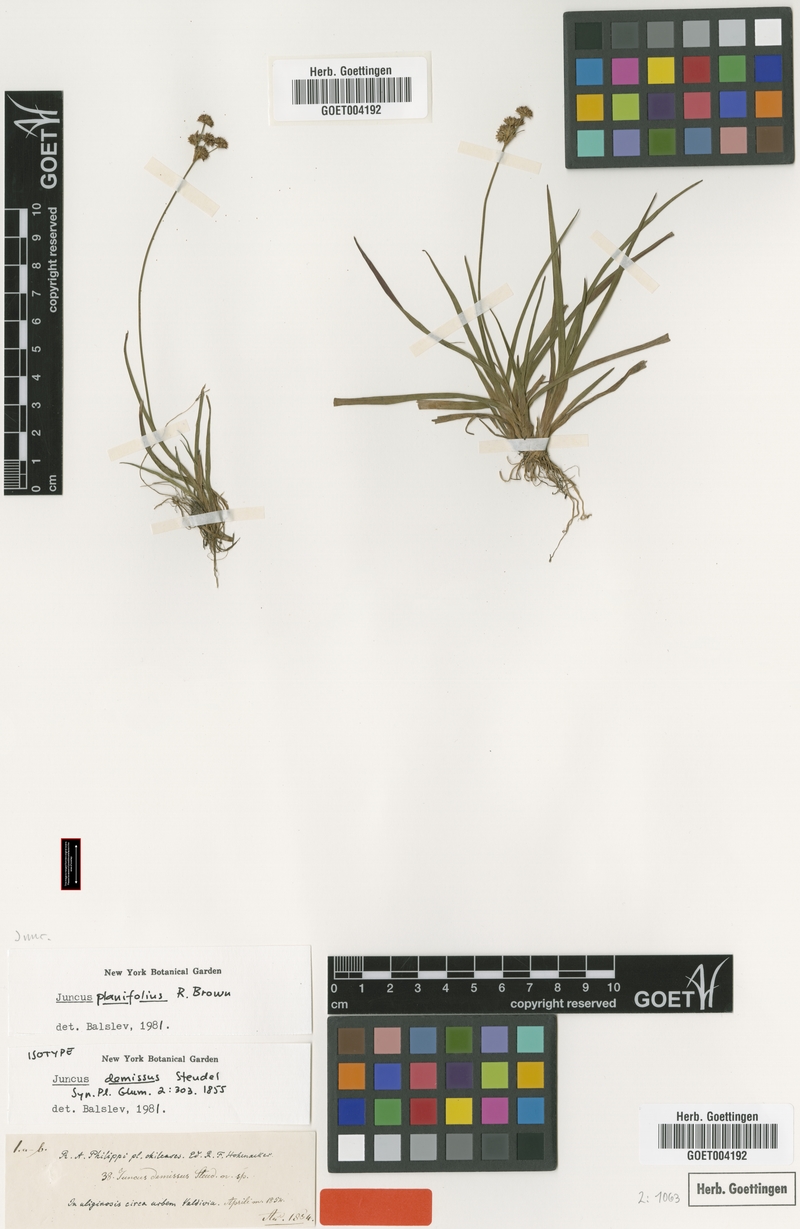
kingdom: Plantae
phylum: Tracheophyta
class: Liliopsida
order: Poales
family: Juncaceae
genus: Juncus
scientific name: Juncus planifolius
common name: Broadleaf rush
